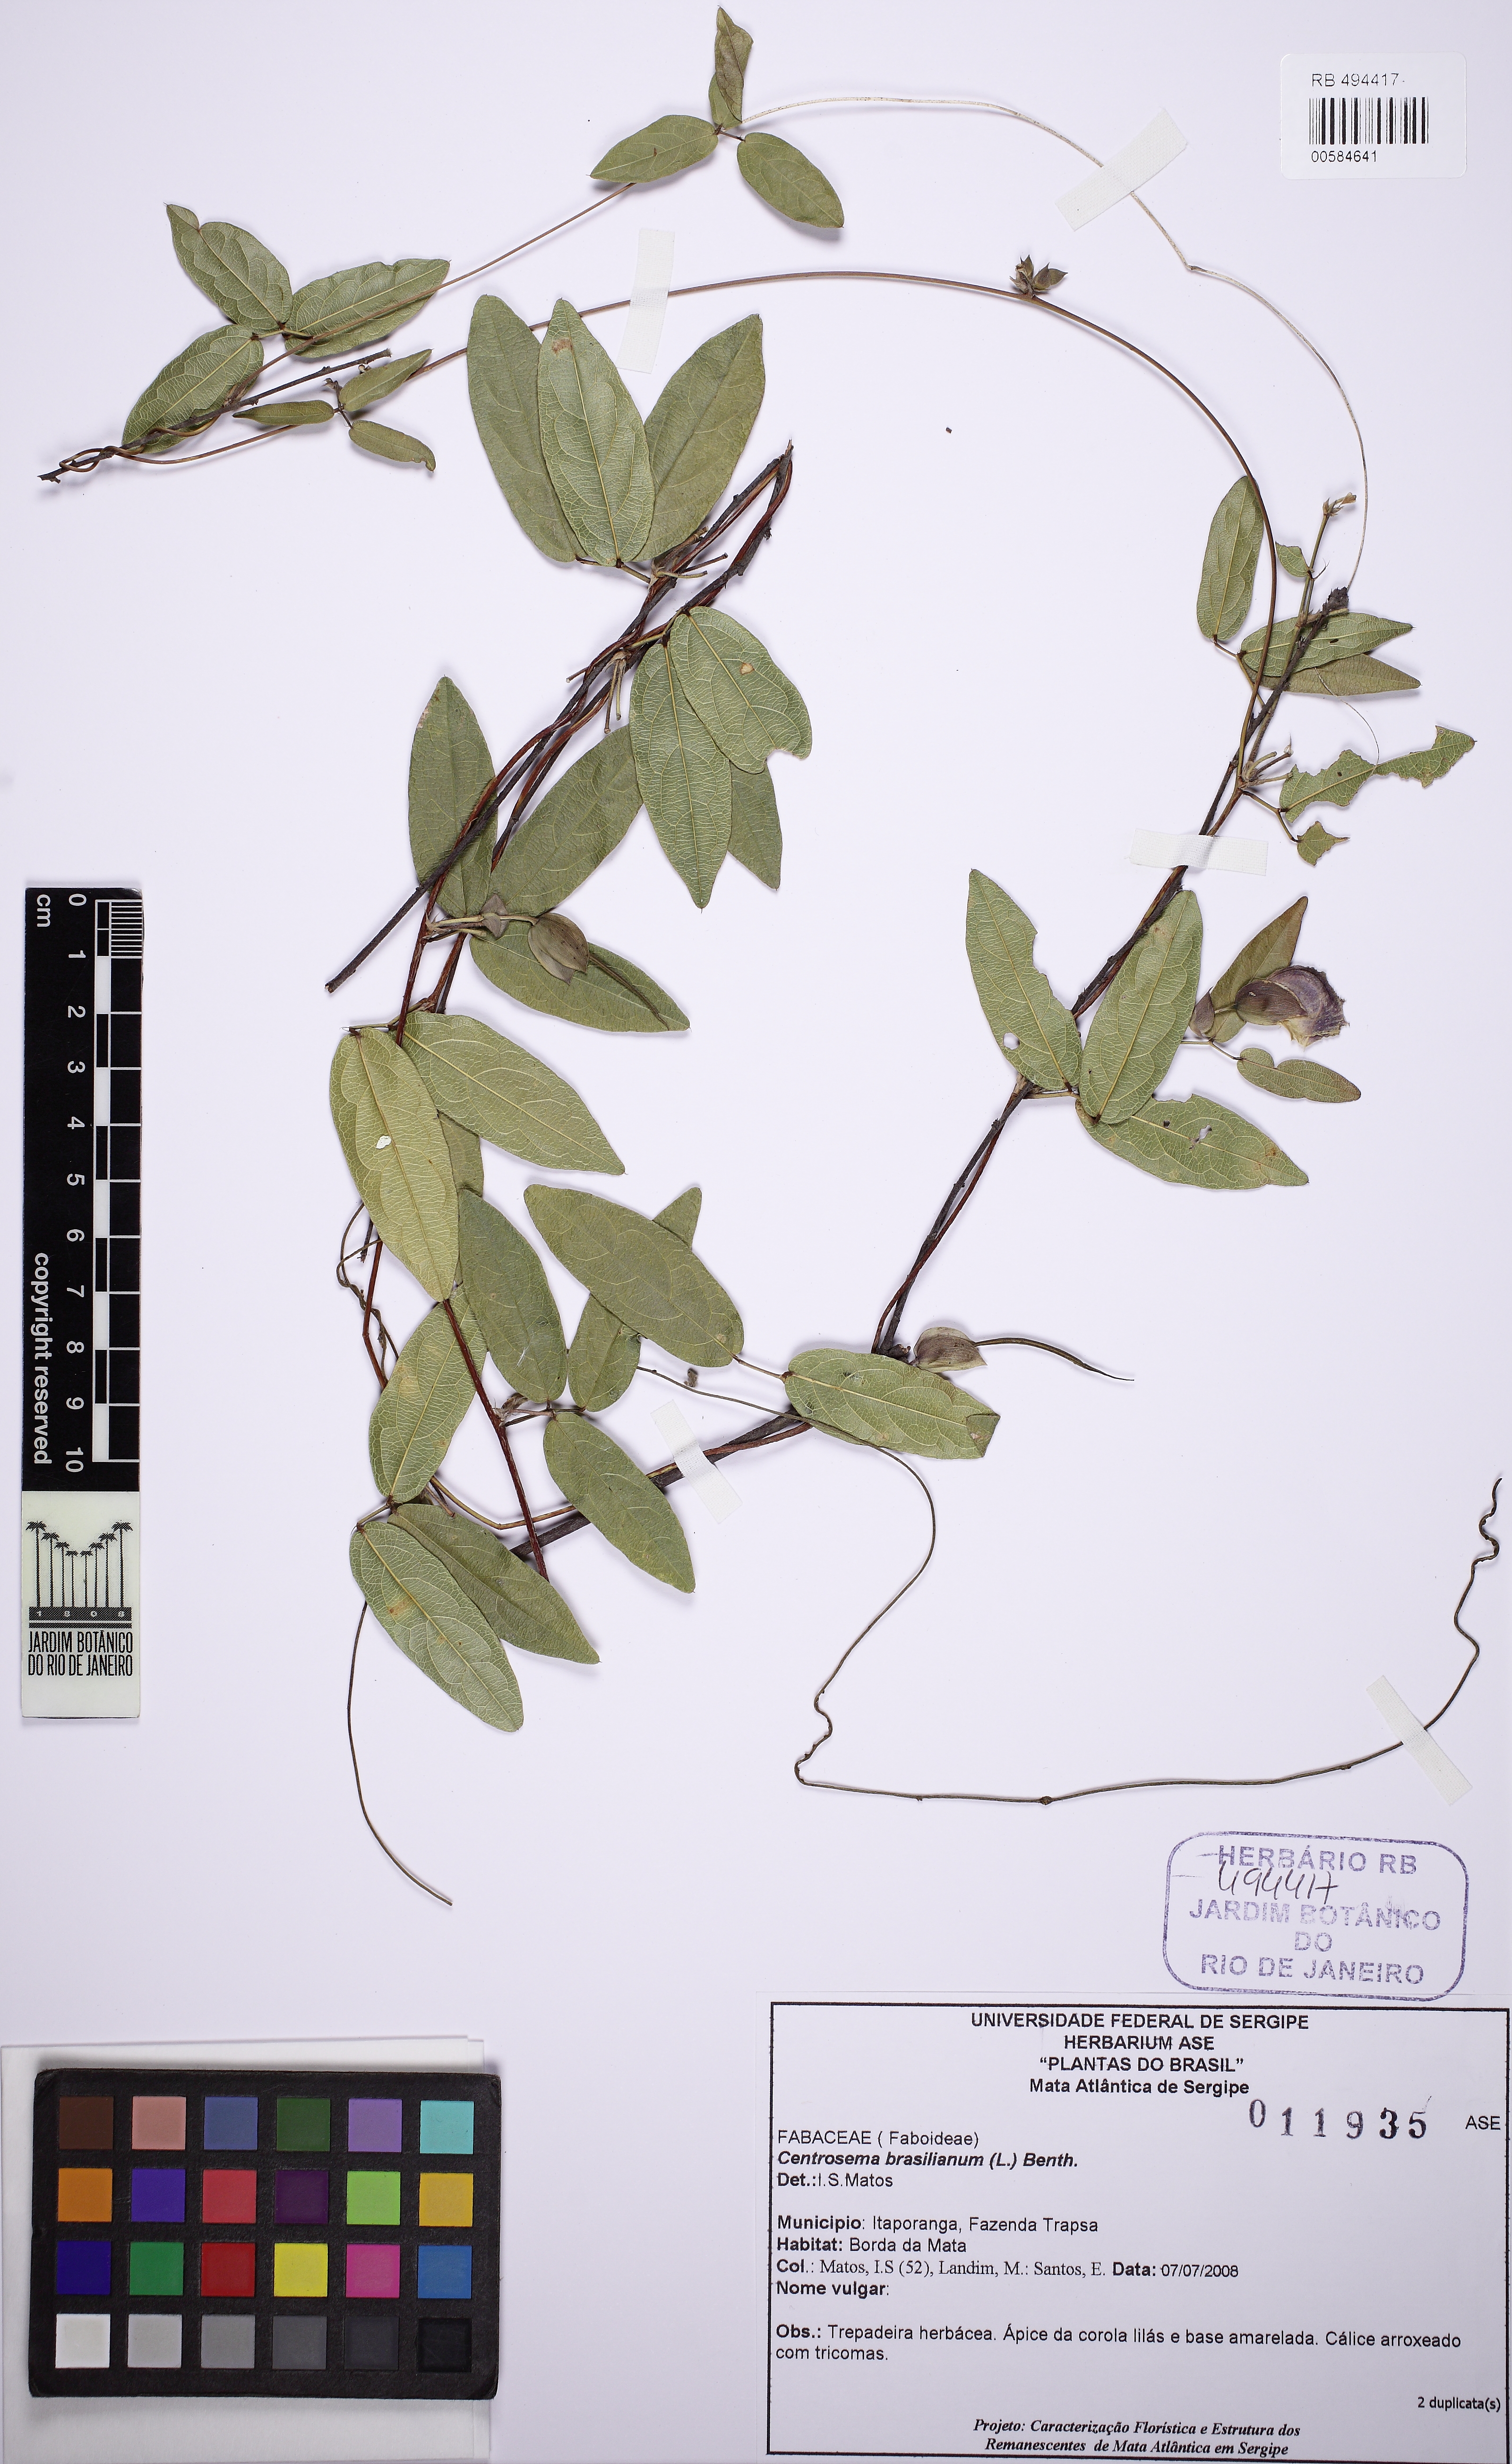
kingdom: Plantae
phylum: Tracheophyta
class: Magnoliopsida
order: Fabales
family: Fabaceae
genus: Centrosema
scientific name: Centrosema brasilianum
